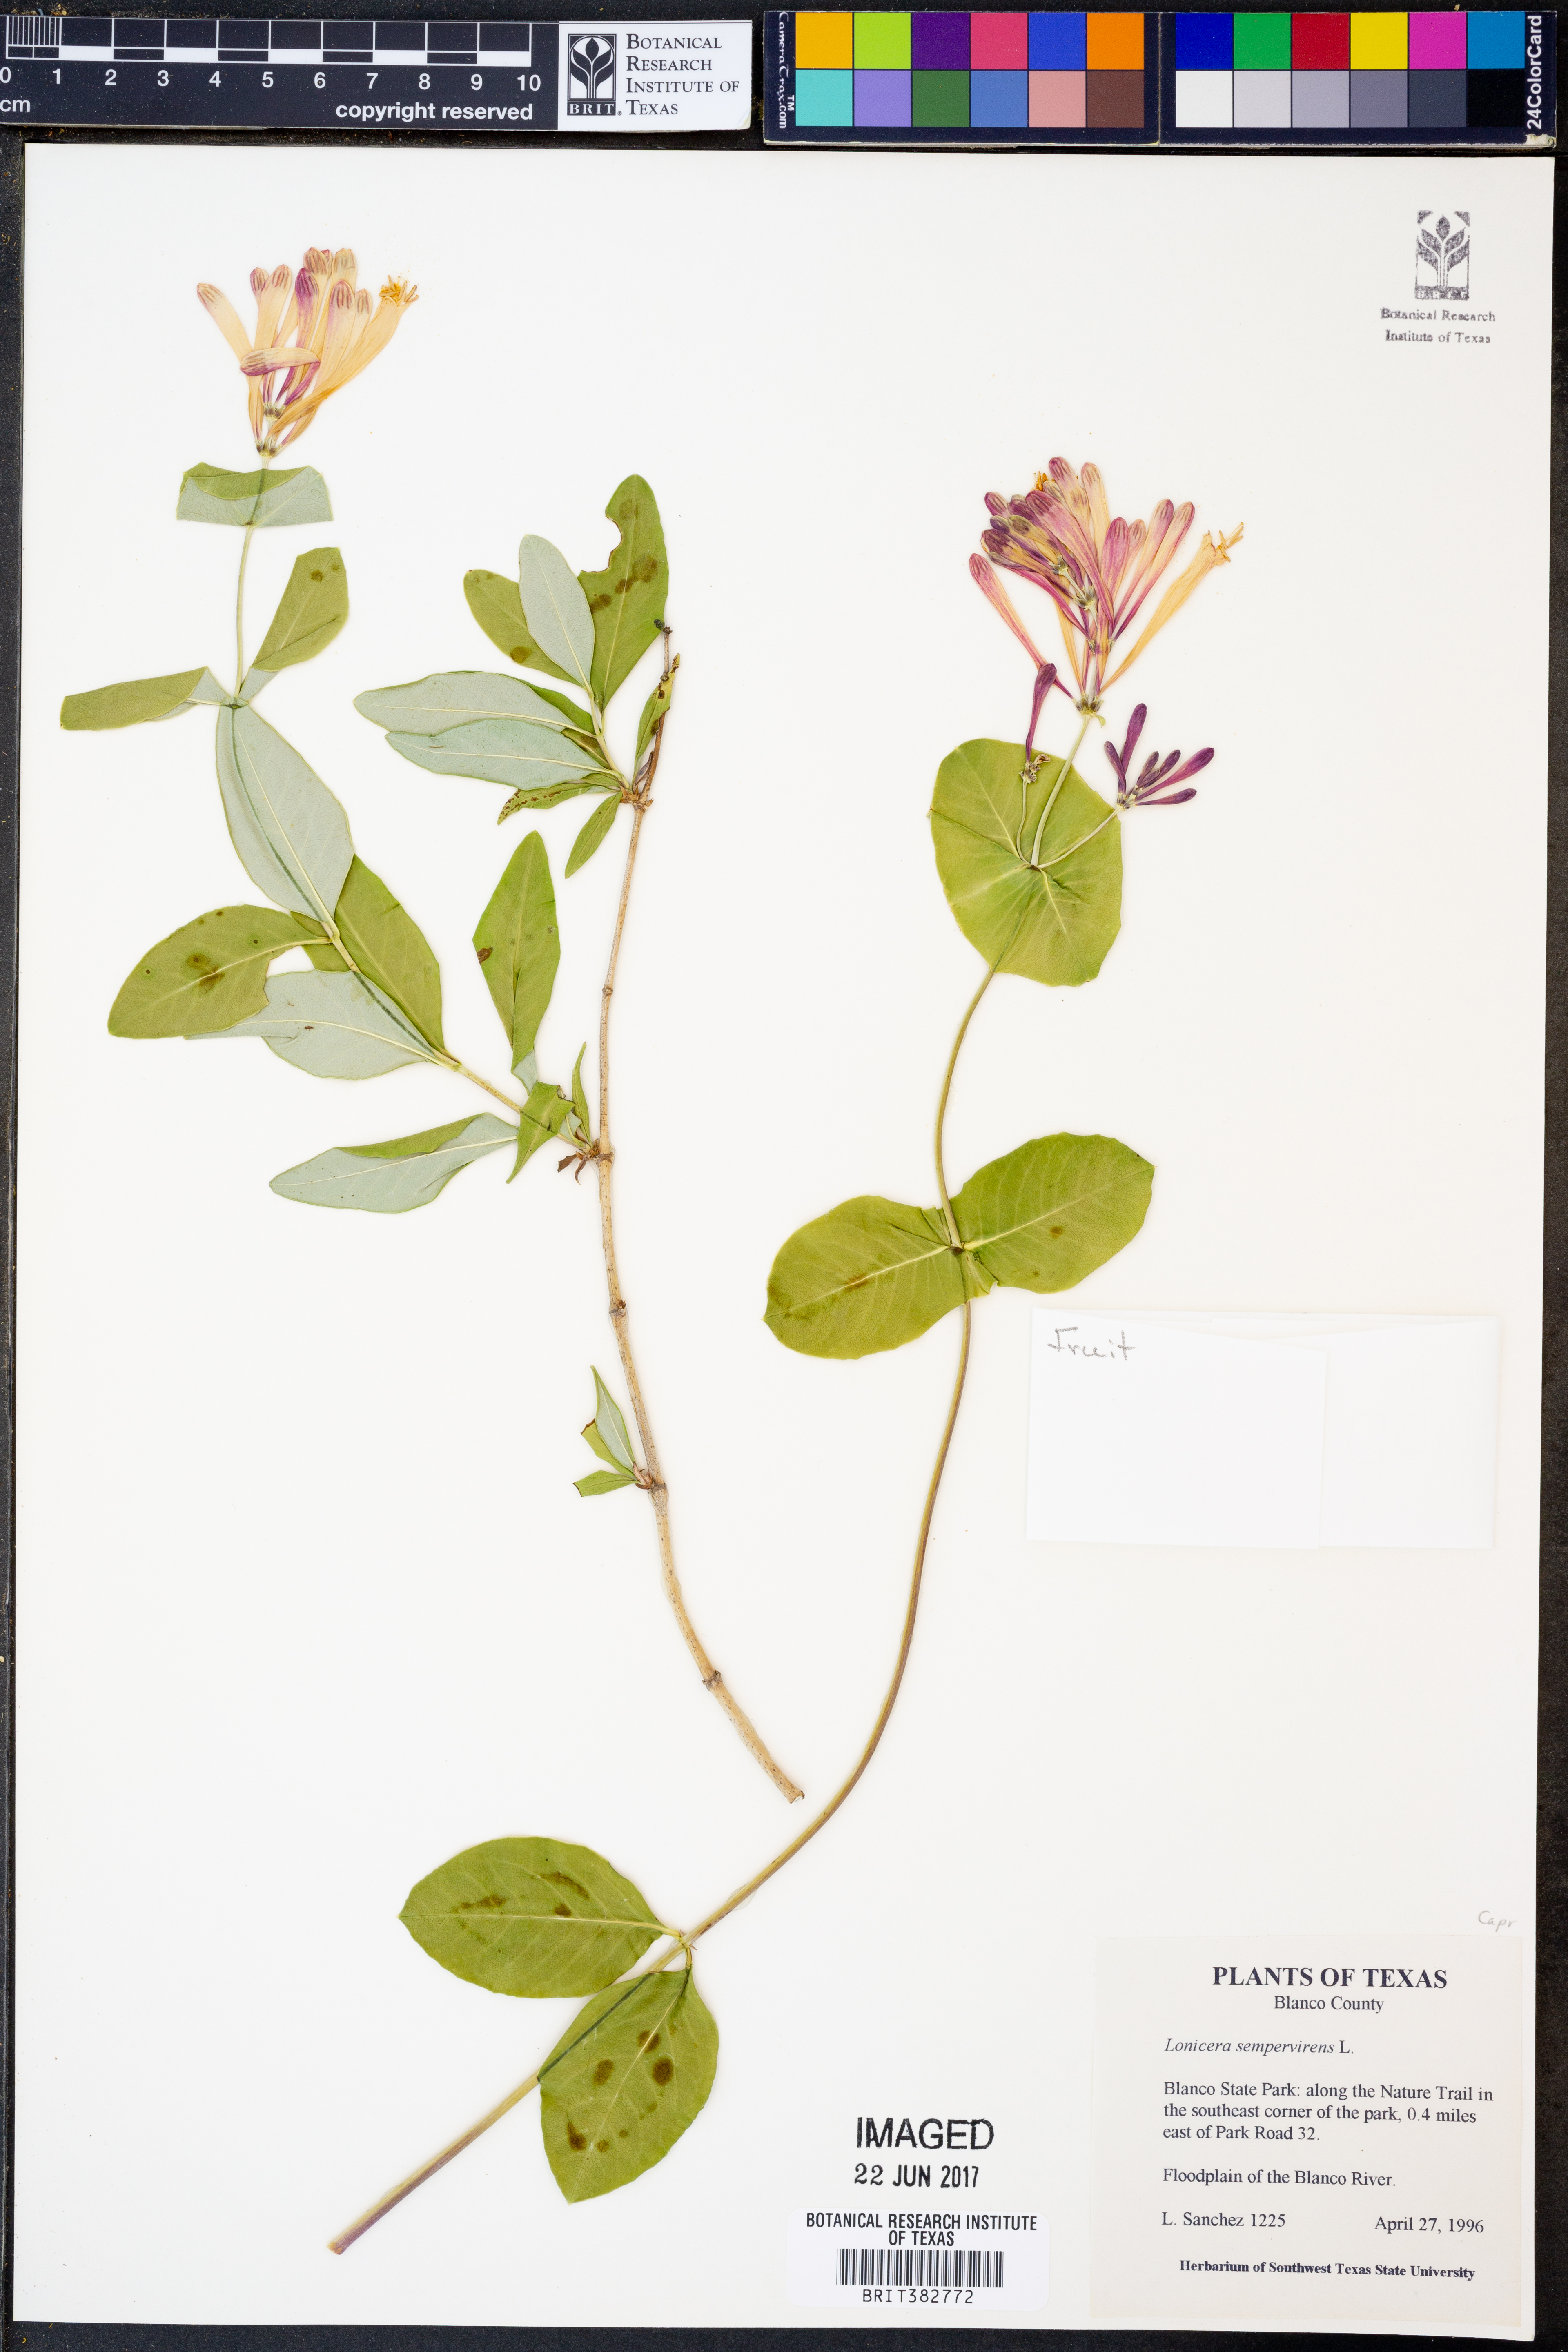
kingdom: Plantae
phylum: Tracheophyta
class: Magnoliopsida
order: Dipsacales
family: Caprifoliaceae
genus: Lonicera
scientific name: Lonicera sempervirens
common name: Coral honeysuckle
